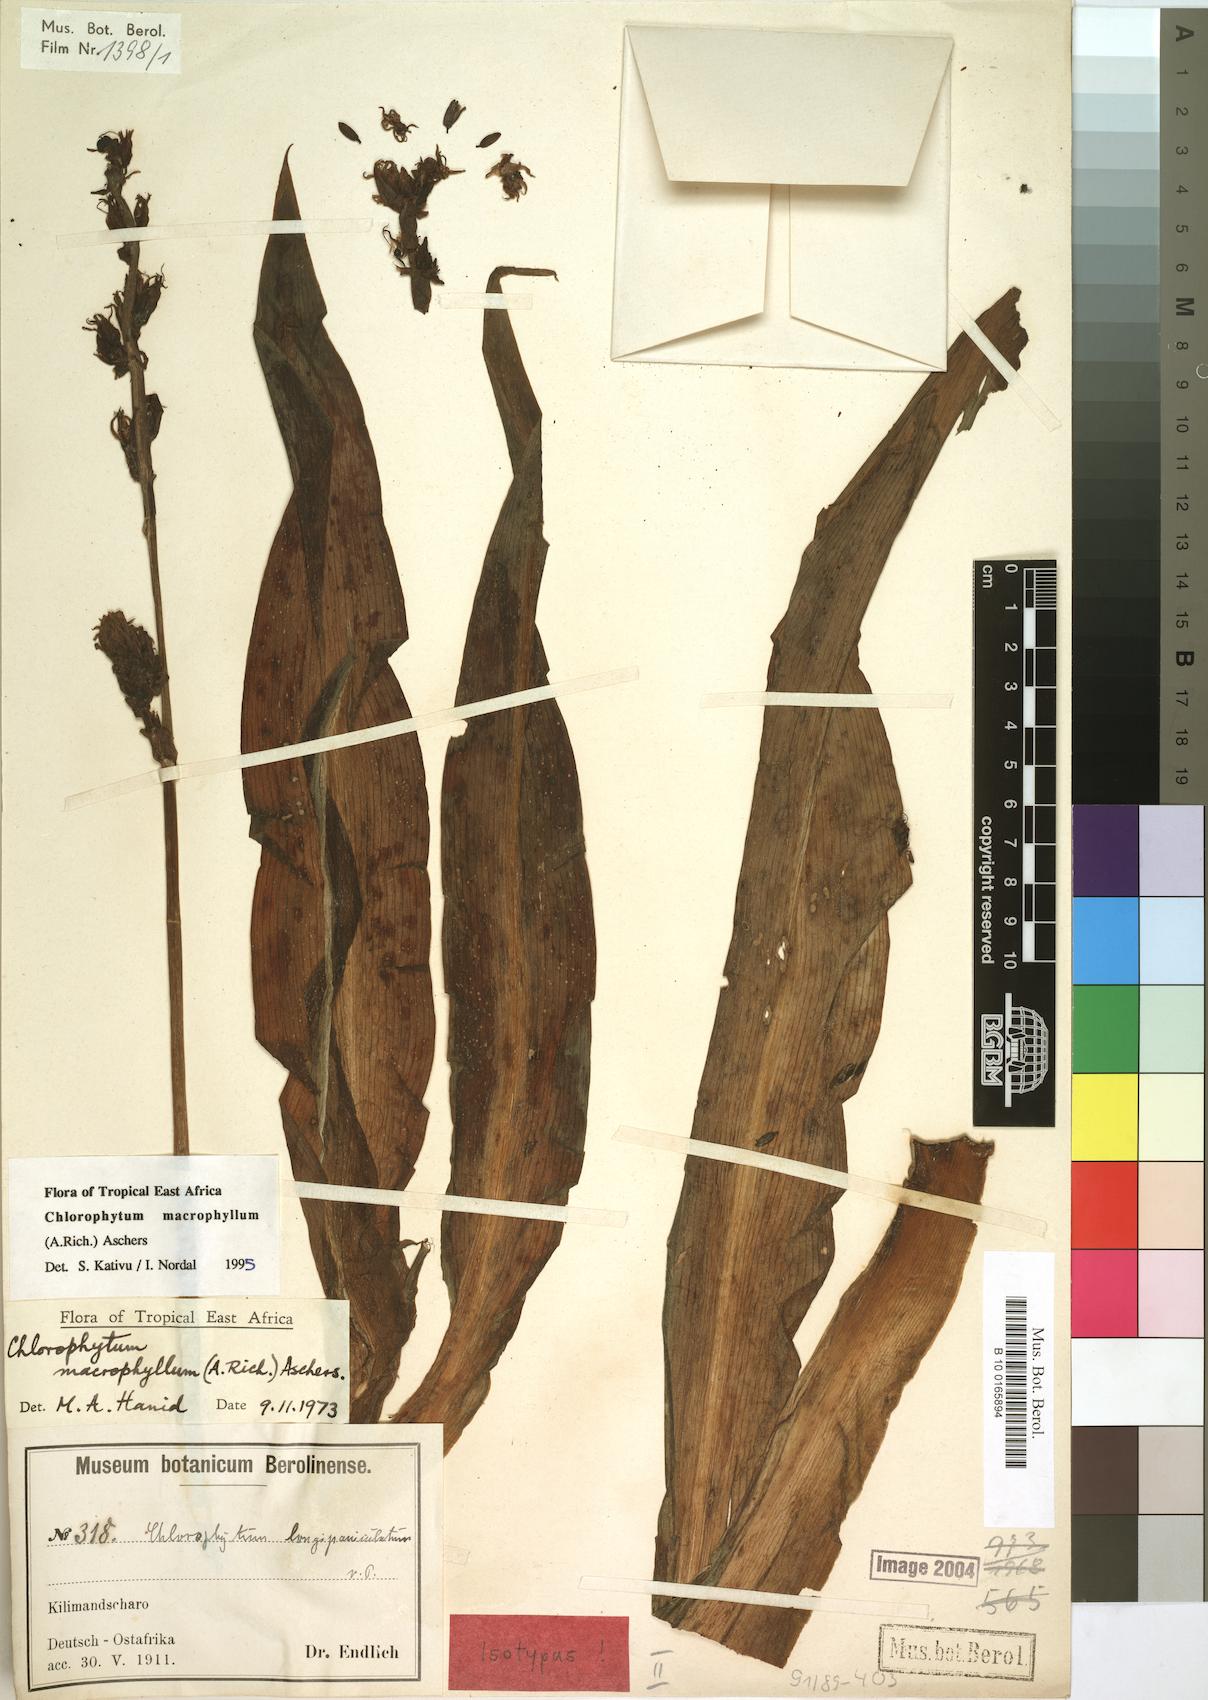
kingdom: Plantae
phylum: Tracheophyta
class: Liliopsida
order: Asparagales
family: Asparagaceae
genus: Chlorophytum
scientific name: Chlorophytum macrophyllum
